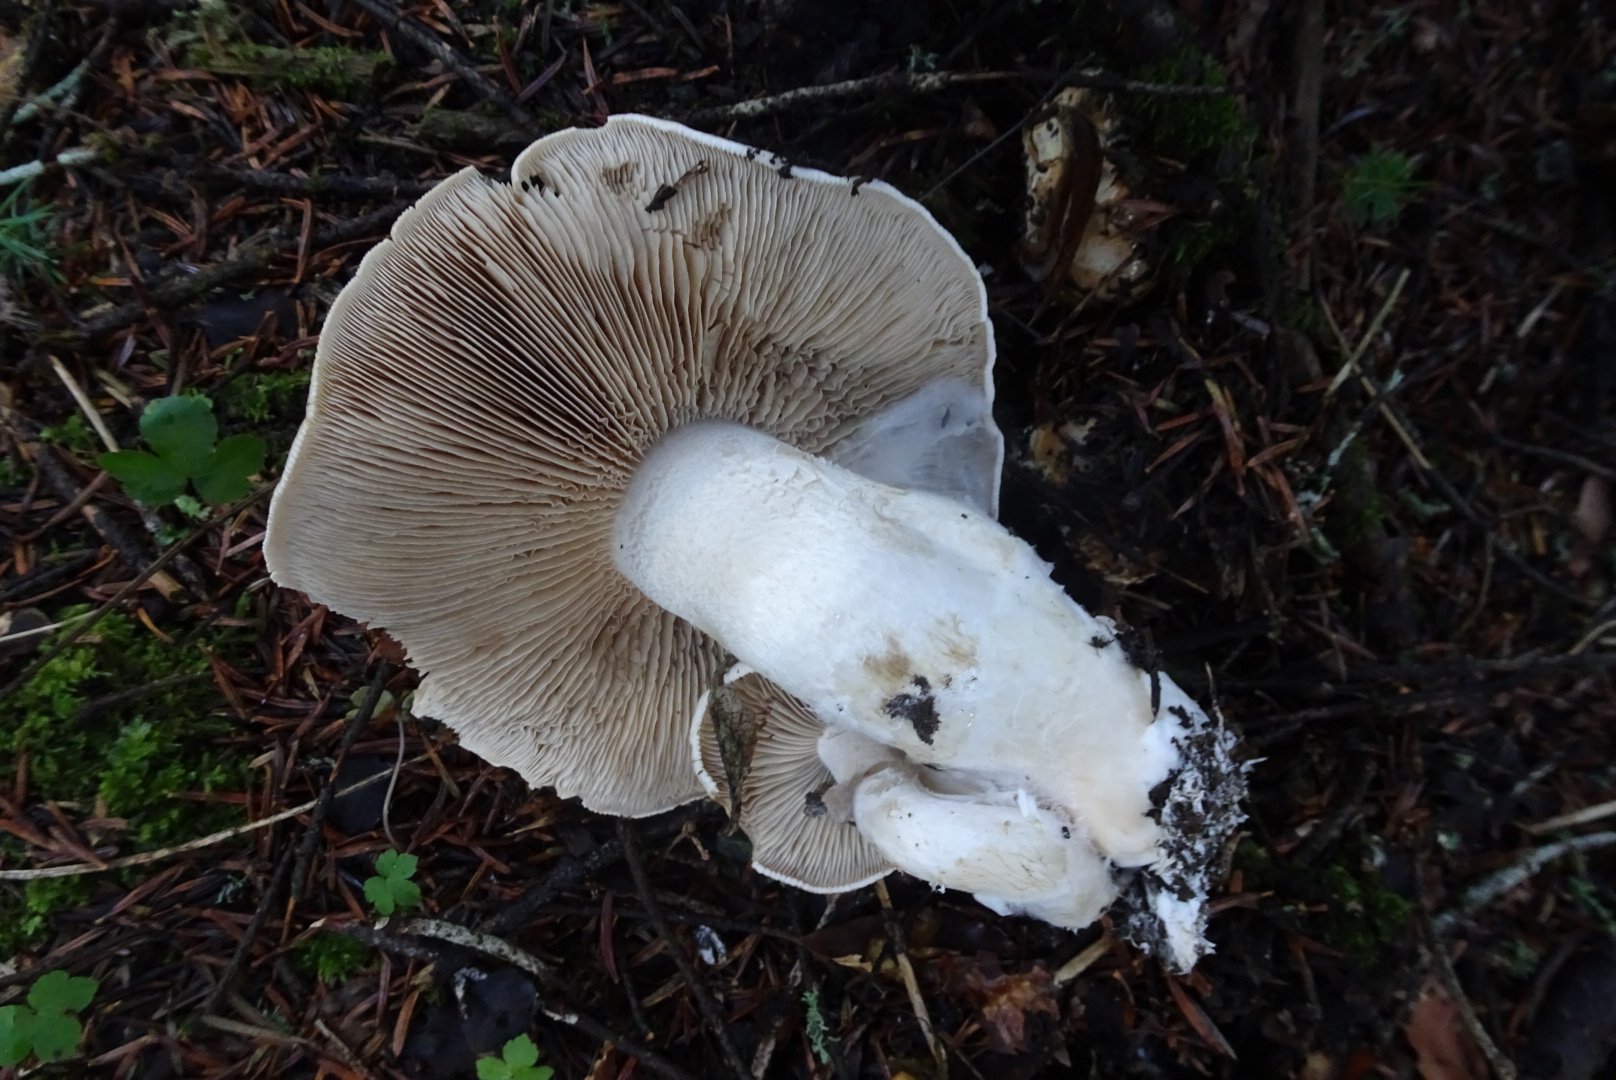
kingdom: Fungi
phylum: Basidiomycota
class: Agaricomycetes
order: Agaricales
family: Hymenogastraceae
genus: Hebeloma
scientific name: Hebeloma sinapizans
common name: ræddike-tåreblad
